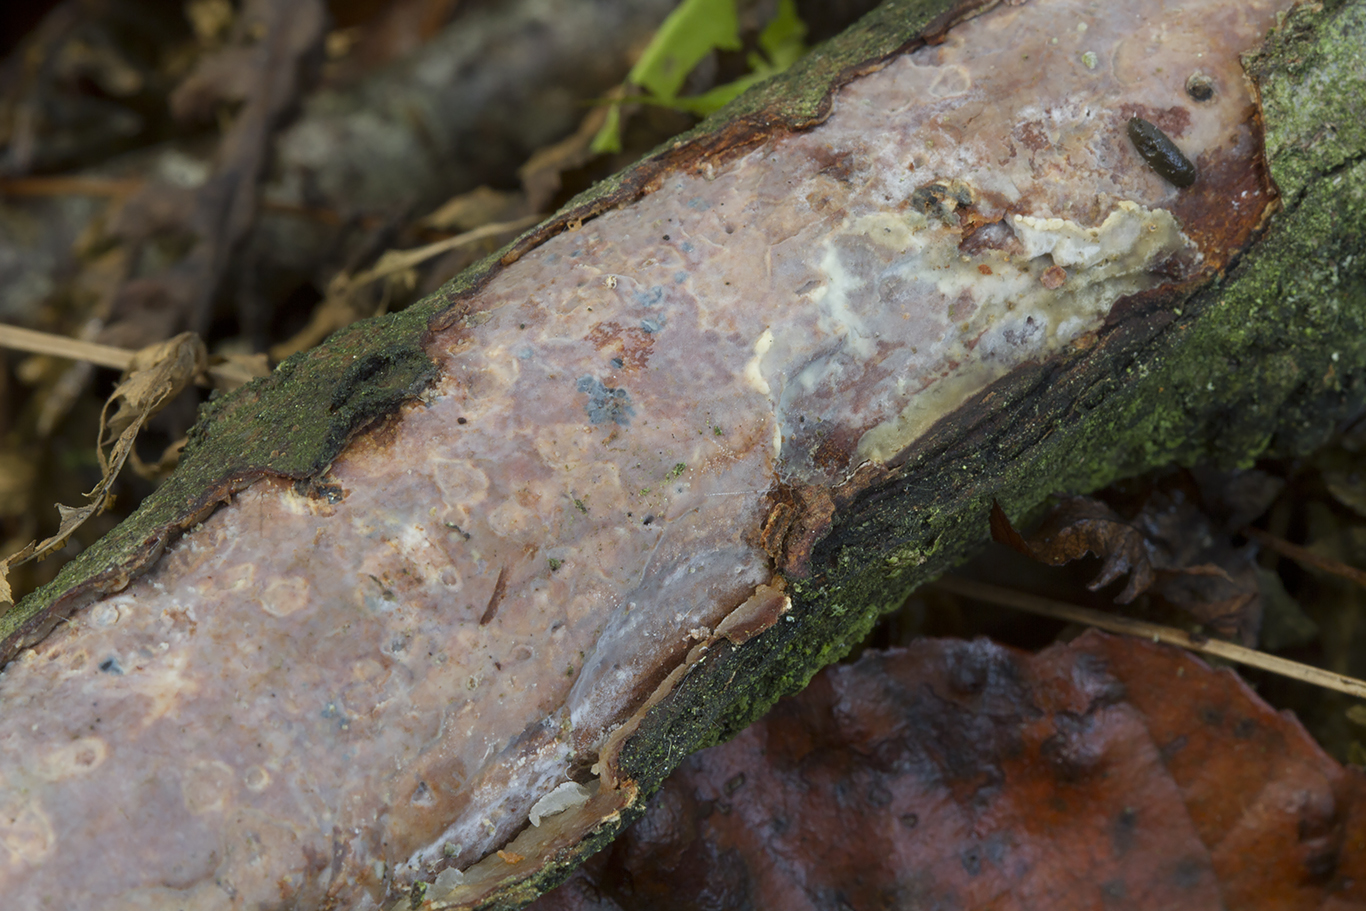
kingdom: Fungi
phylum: Basidiomycota
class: Agaricomycetes
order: Corticiales
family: Vuilleminiaceae
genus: Vuilleminia
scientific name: Vuilleminia comedens
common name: almindelig barksprænger
